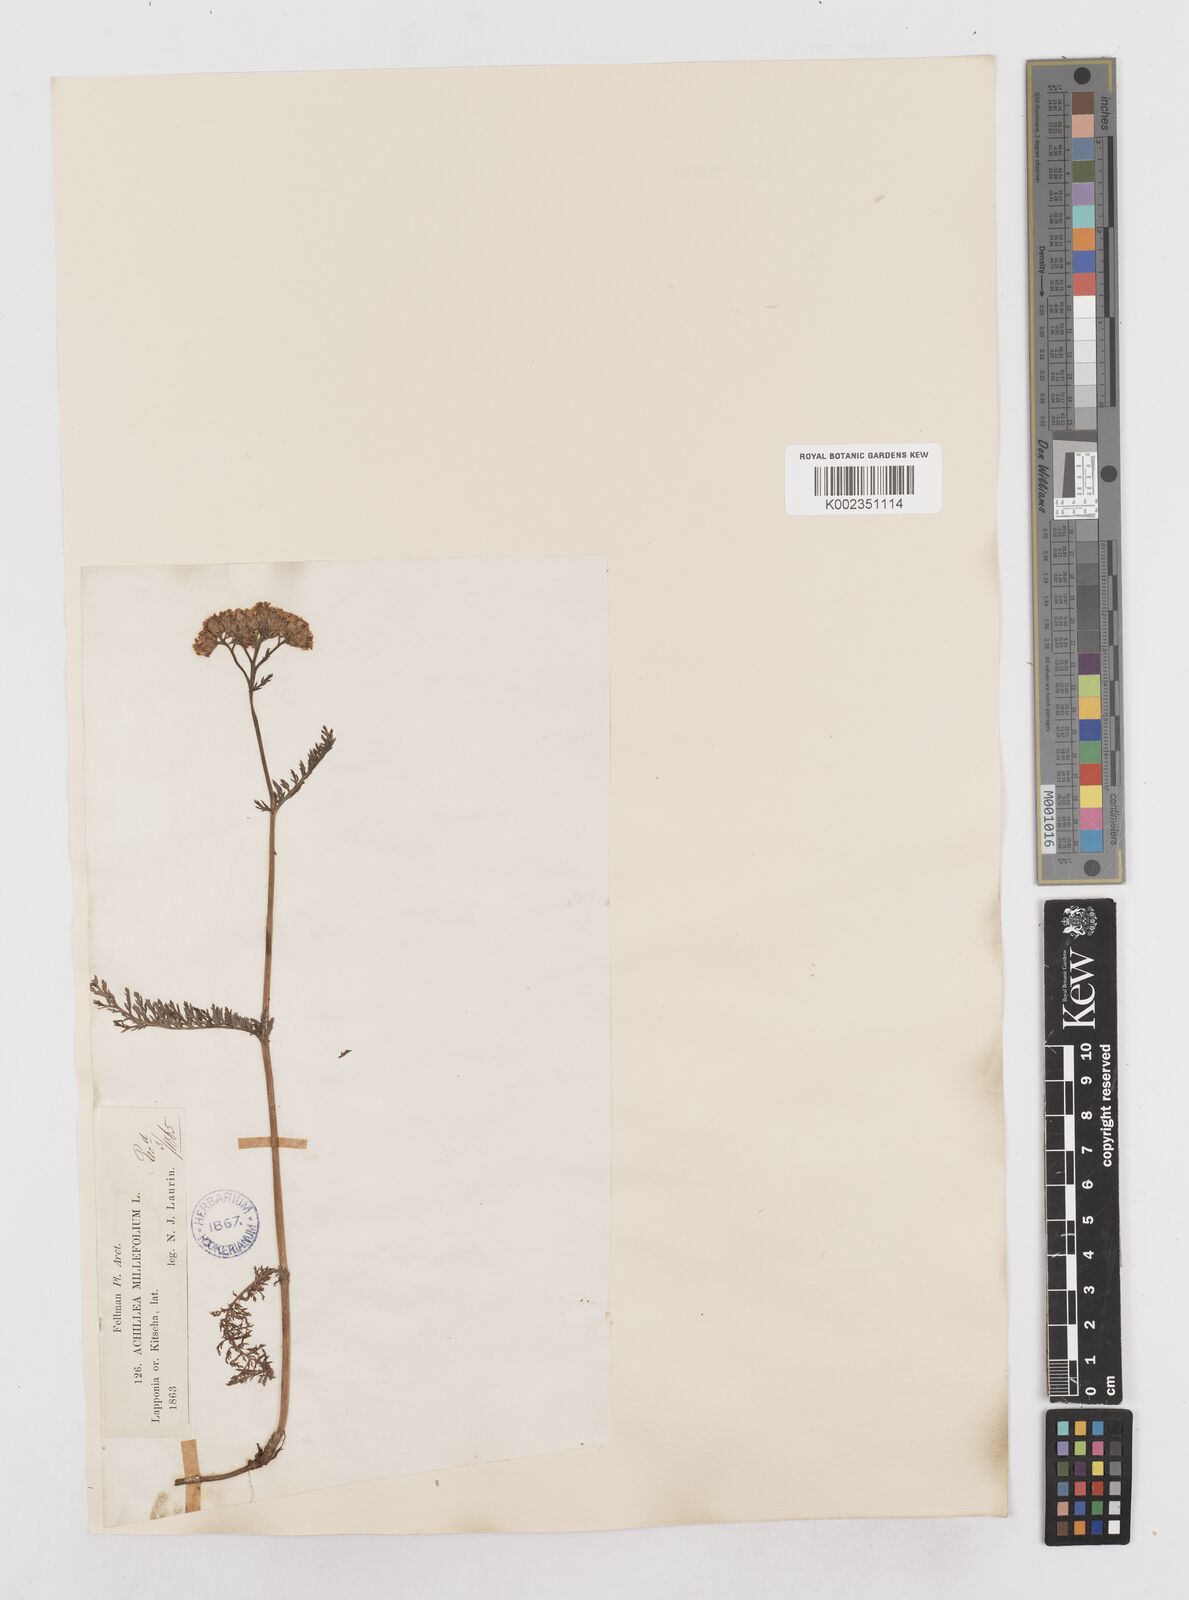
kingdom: Plantae
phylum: Tracheophyta
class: Magnoliopsida
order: Asterales
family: Asteraceae
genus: Achillea
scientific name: Achillea millefolium
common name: Yarrow
